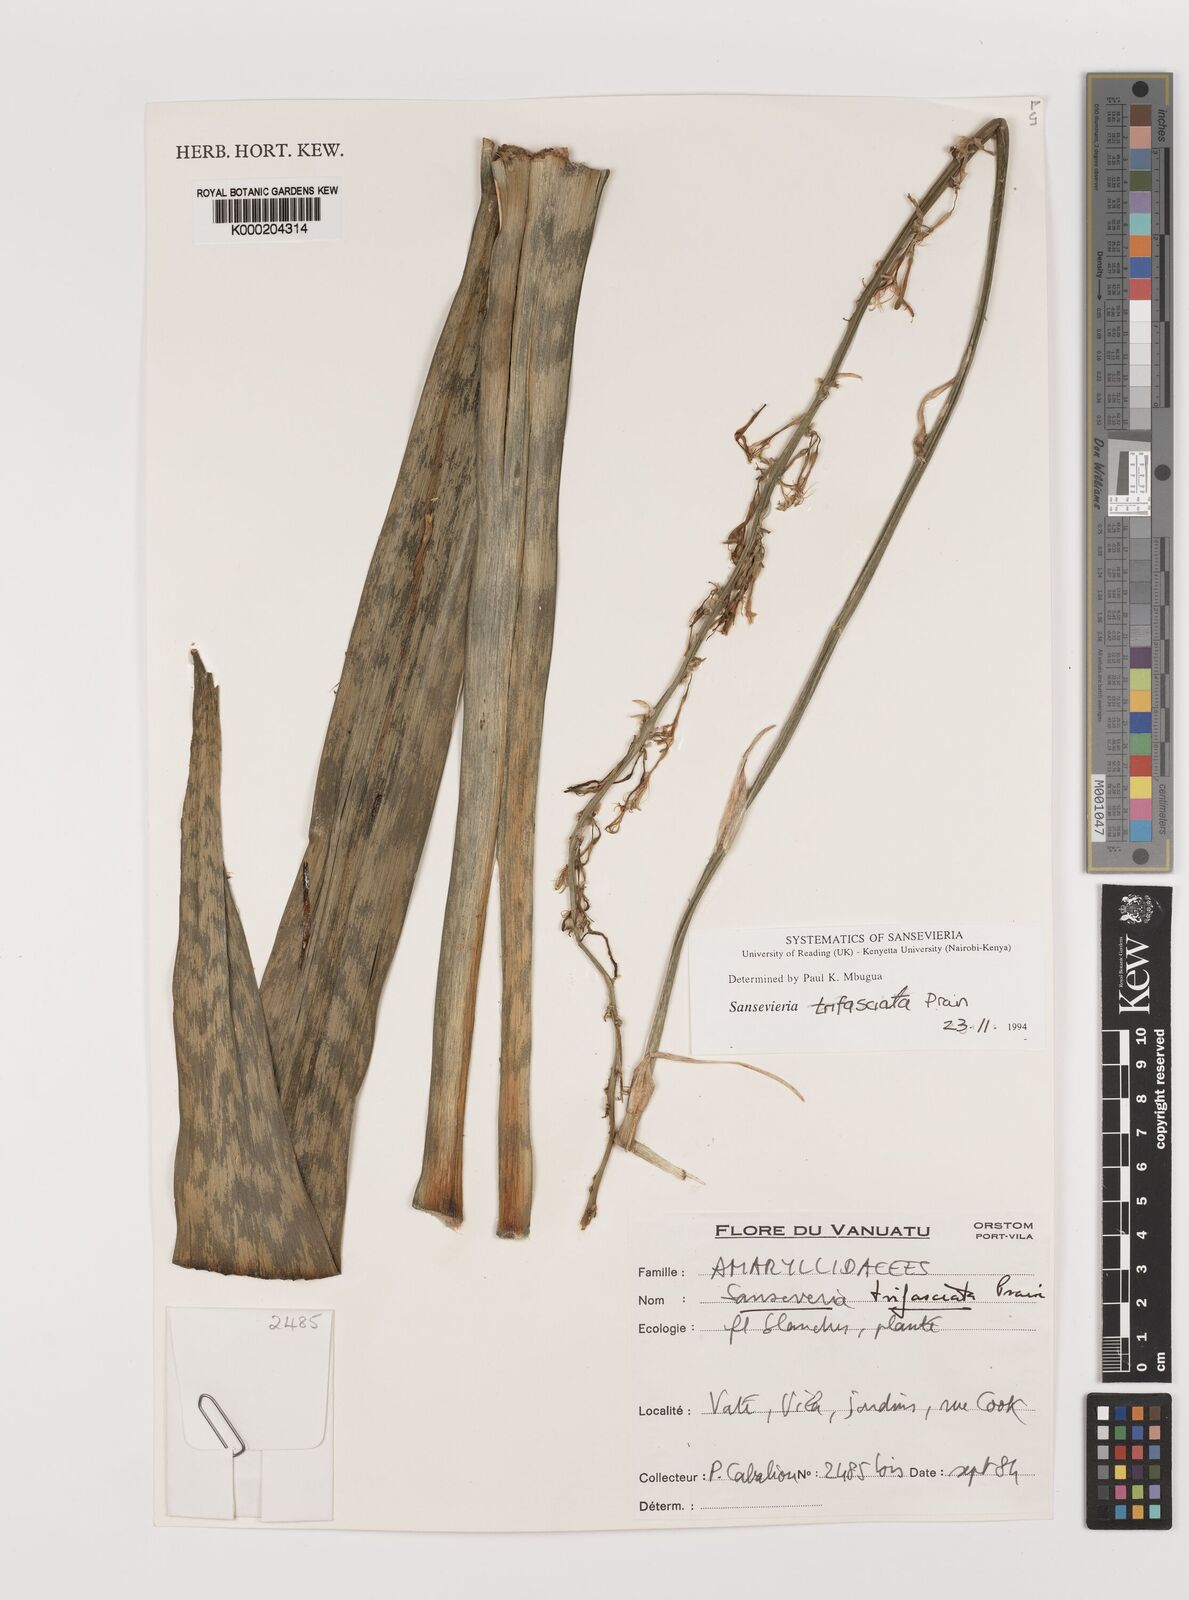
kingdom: Plantae
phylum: Tracheophyta
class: Liliopsida
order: Asparagales
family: Asparagaceae
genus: Dracaena
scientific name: Dracaena trifasciata
